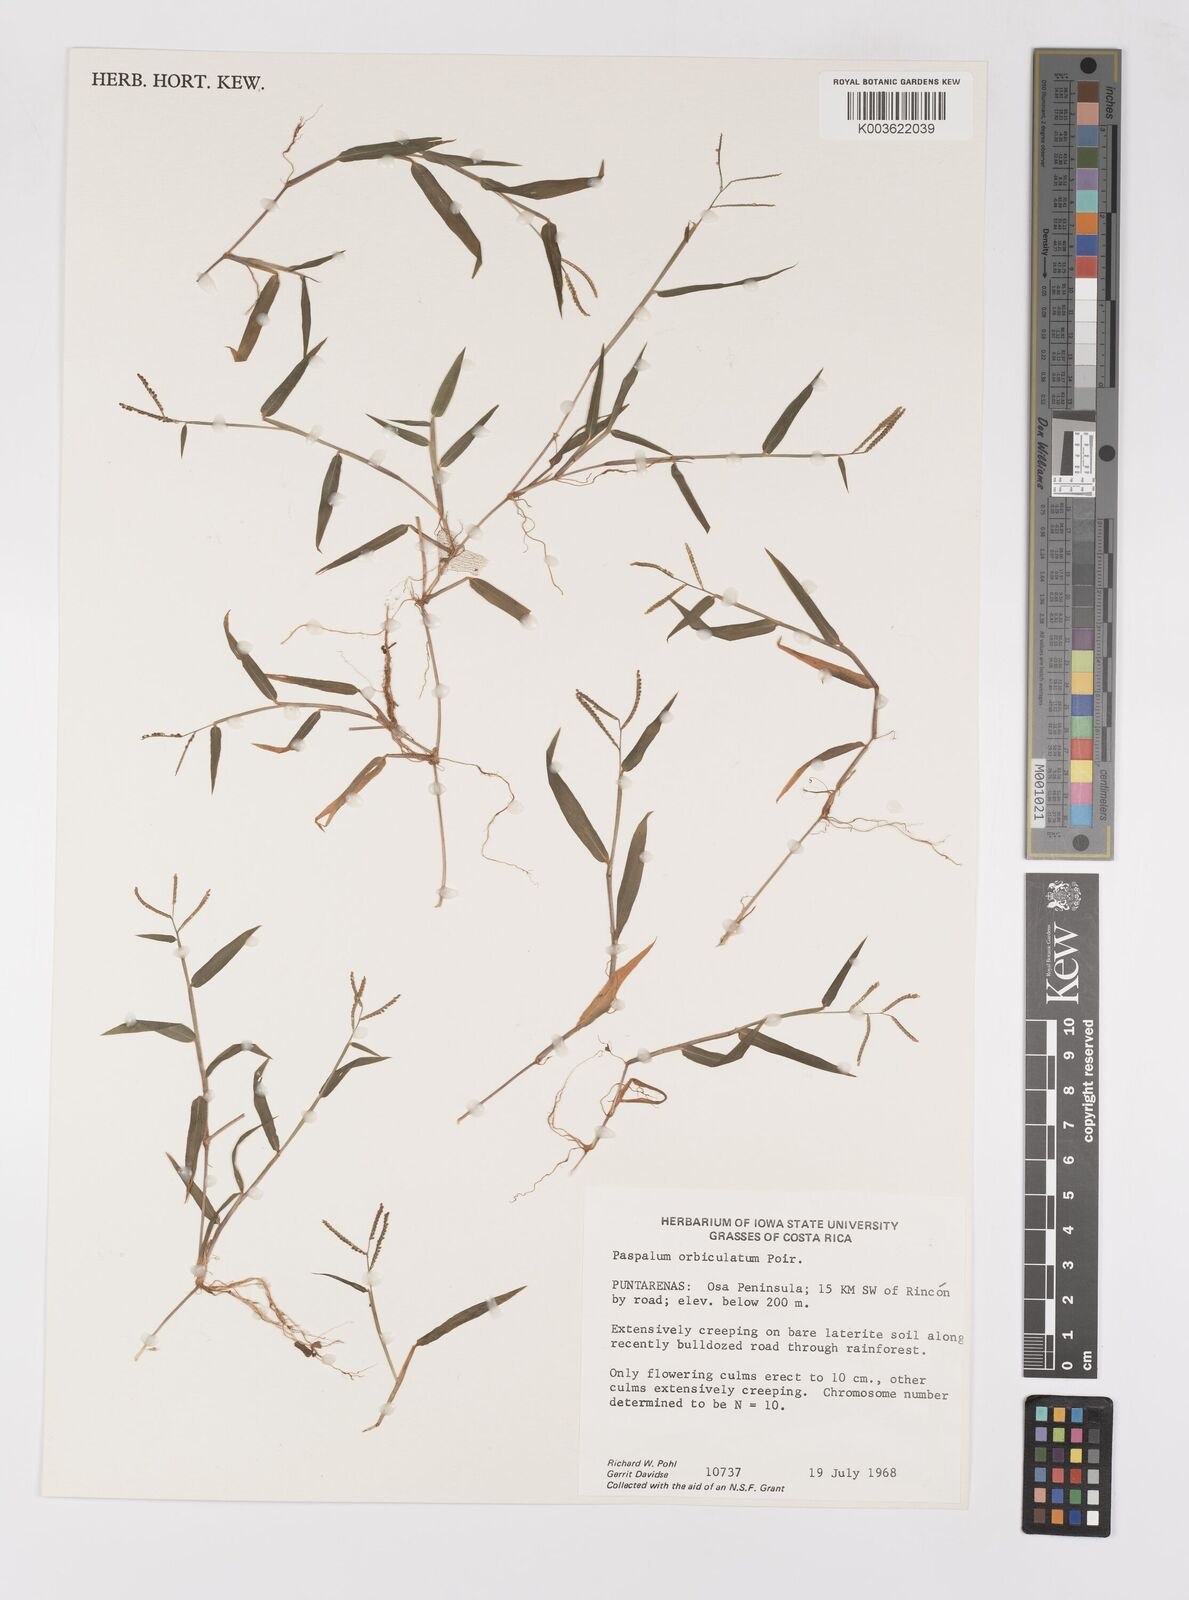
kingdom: Plantae
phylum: Tracheophyta
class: Liliopsida
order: Poales
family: Poaceae
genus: Paspalum
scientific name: Paspalum orbiculatum
